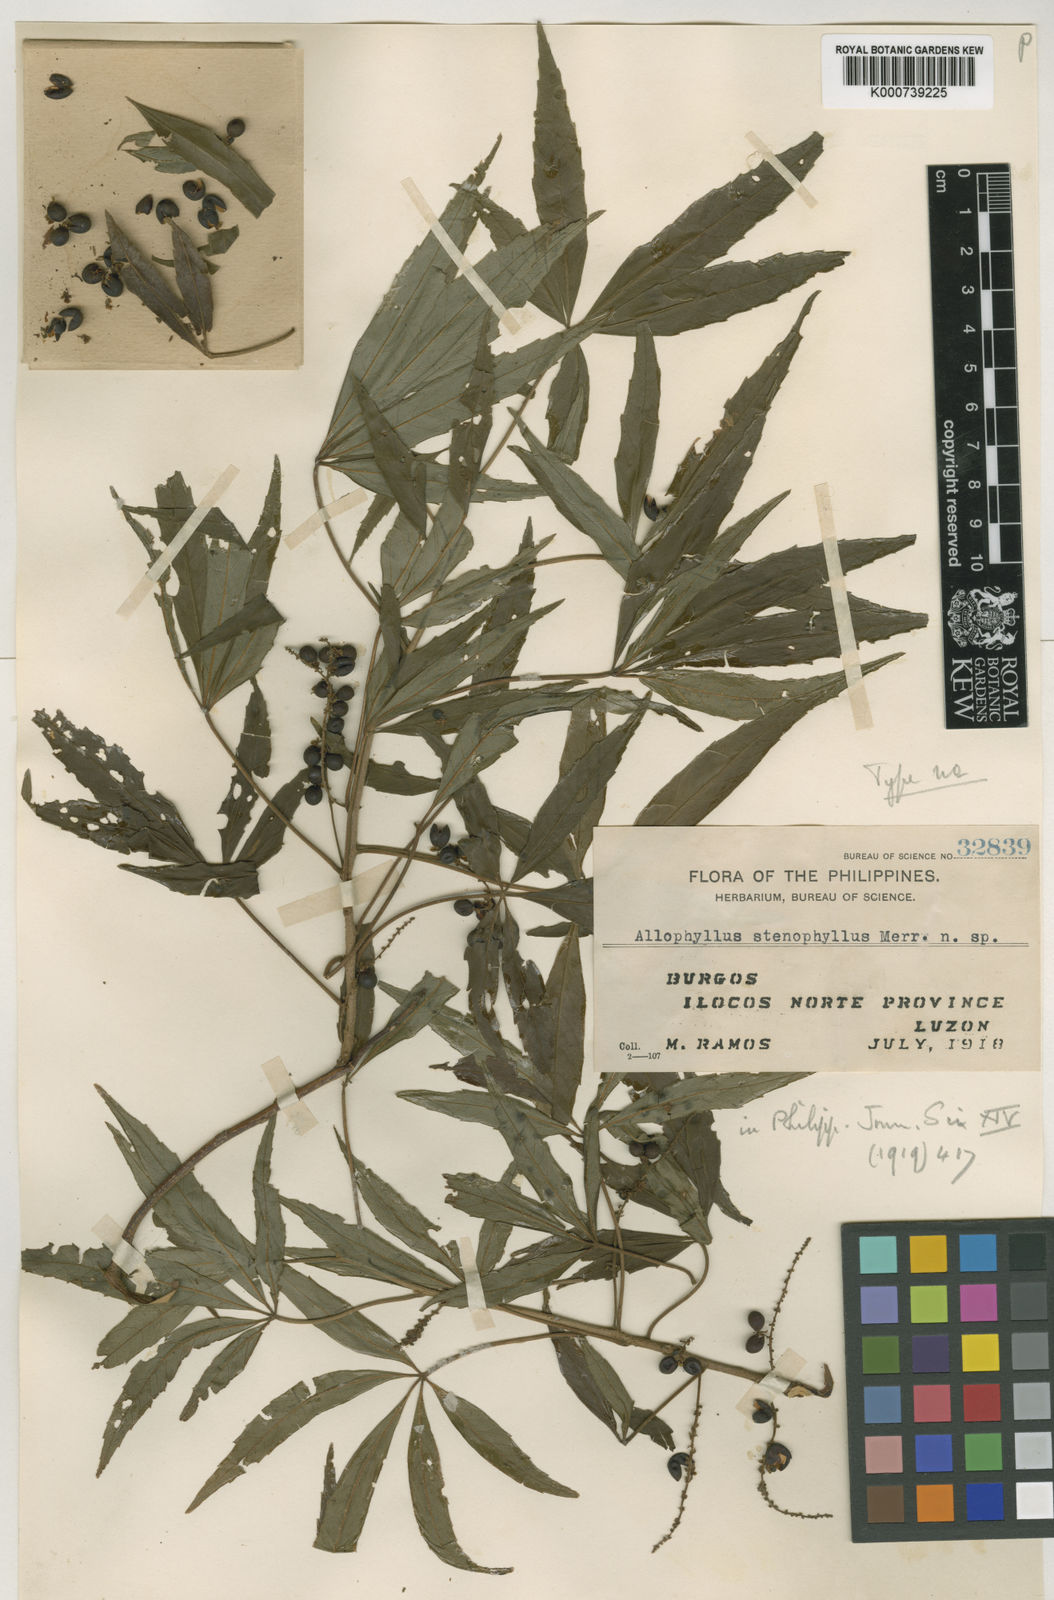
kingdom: Plantae
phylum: Tracheophyta
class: Magnoliopsida
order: Sapindales
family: Sapindaceae
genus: Allophylus
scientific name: Allophylus stenophyllus
